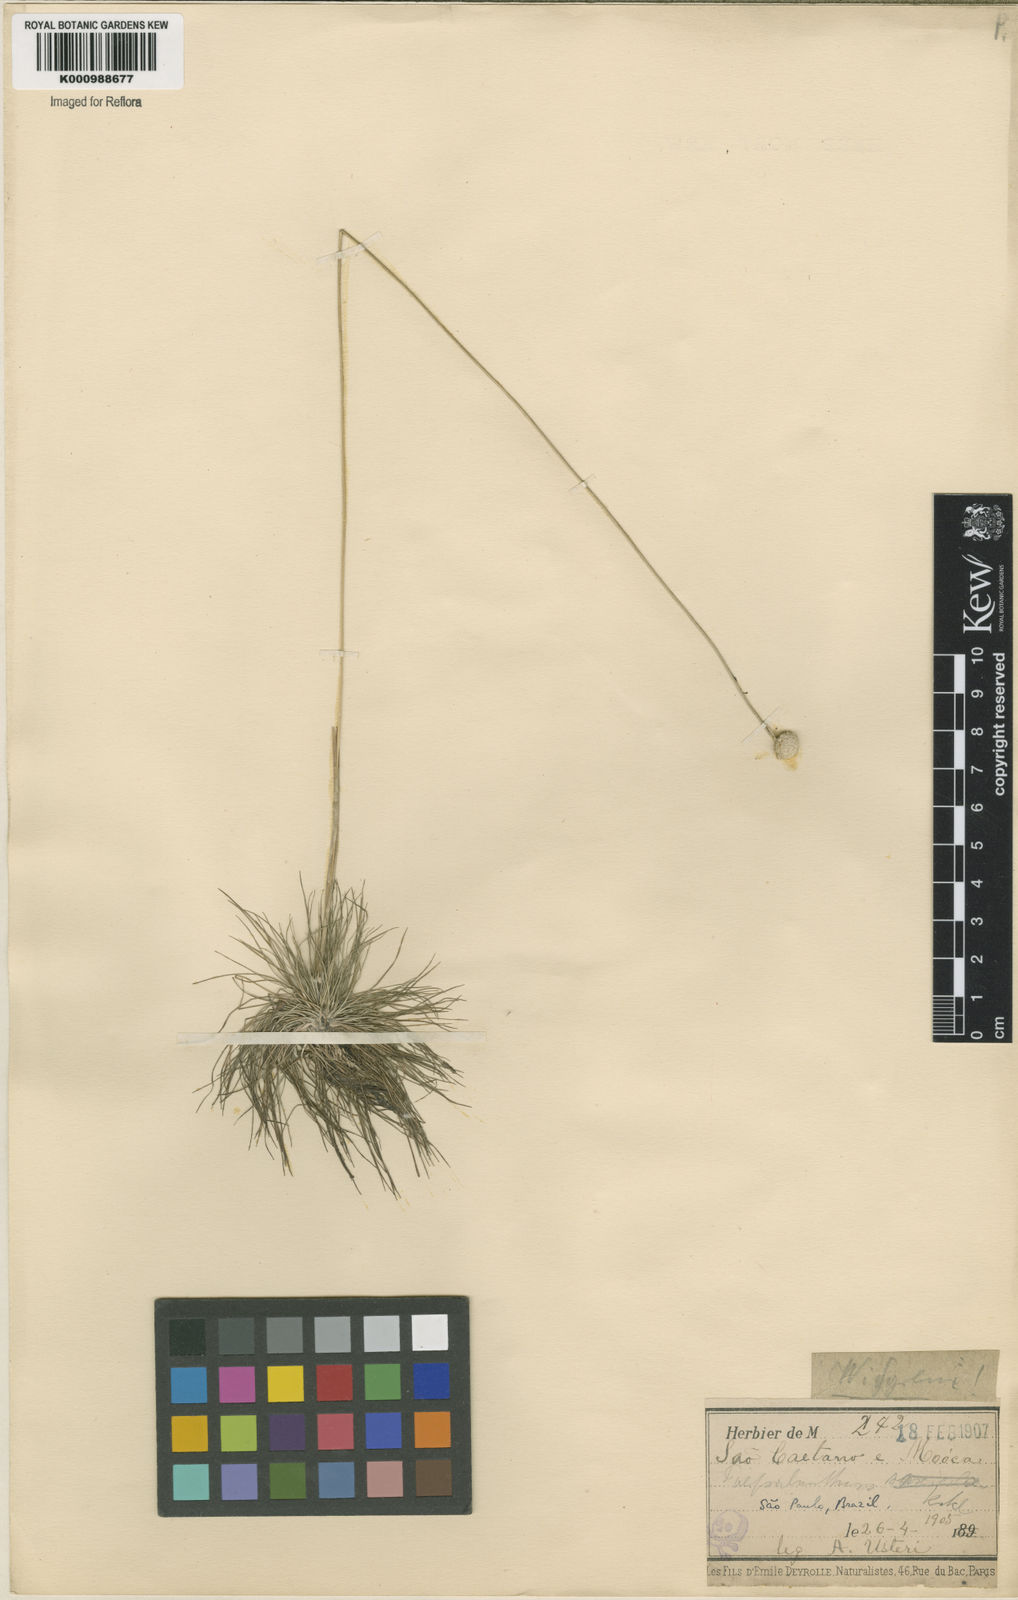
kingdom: Plantae
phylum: Tracheophyta
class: Liliopsida
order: Poales
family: Eriocaulaceae
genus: Syngonanthus
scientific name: Syngonanthus widgrenianus
